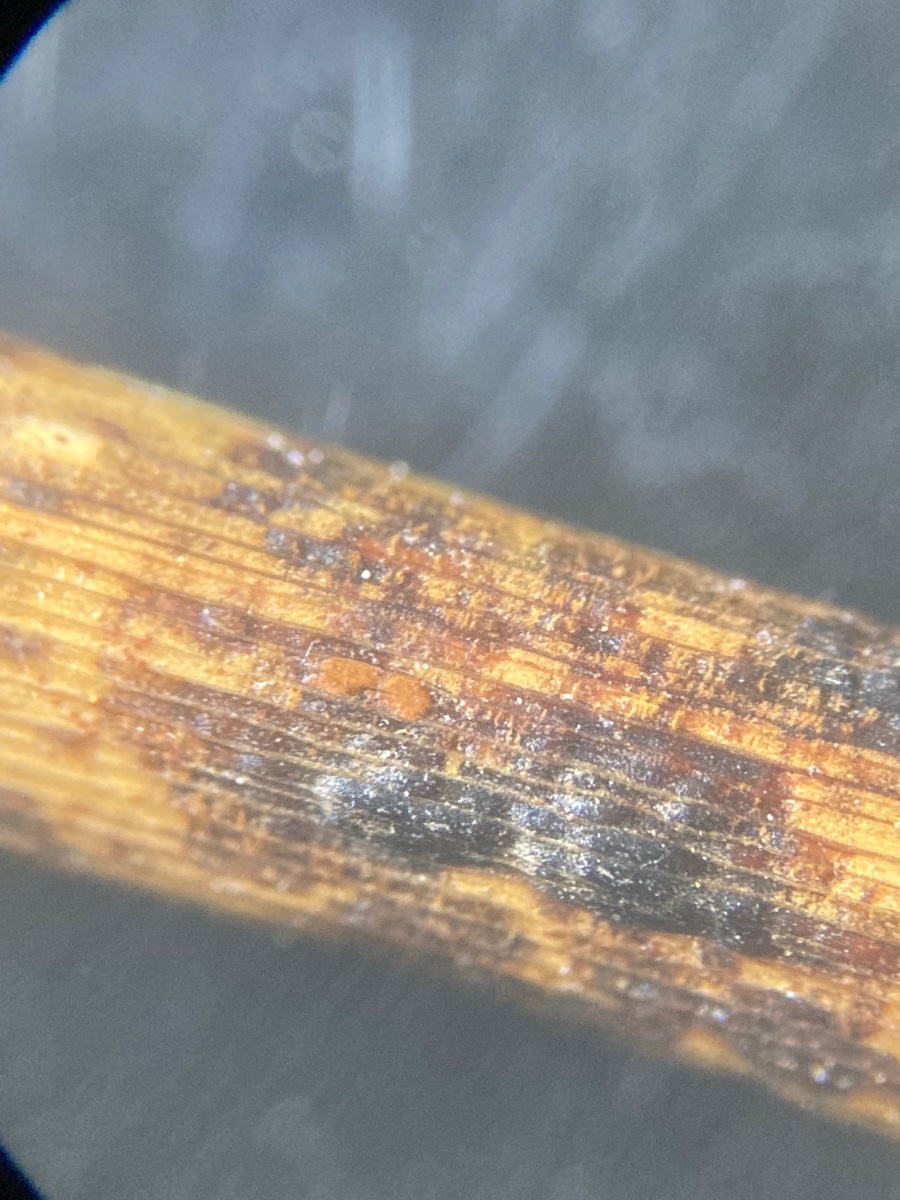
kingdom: Fungi
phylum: Ascomycota
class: Sordariomycetes
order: Phyllachorales
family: Phyllachoraceae
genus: Phyllachora
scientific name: Phyllachora junci
